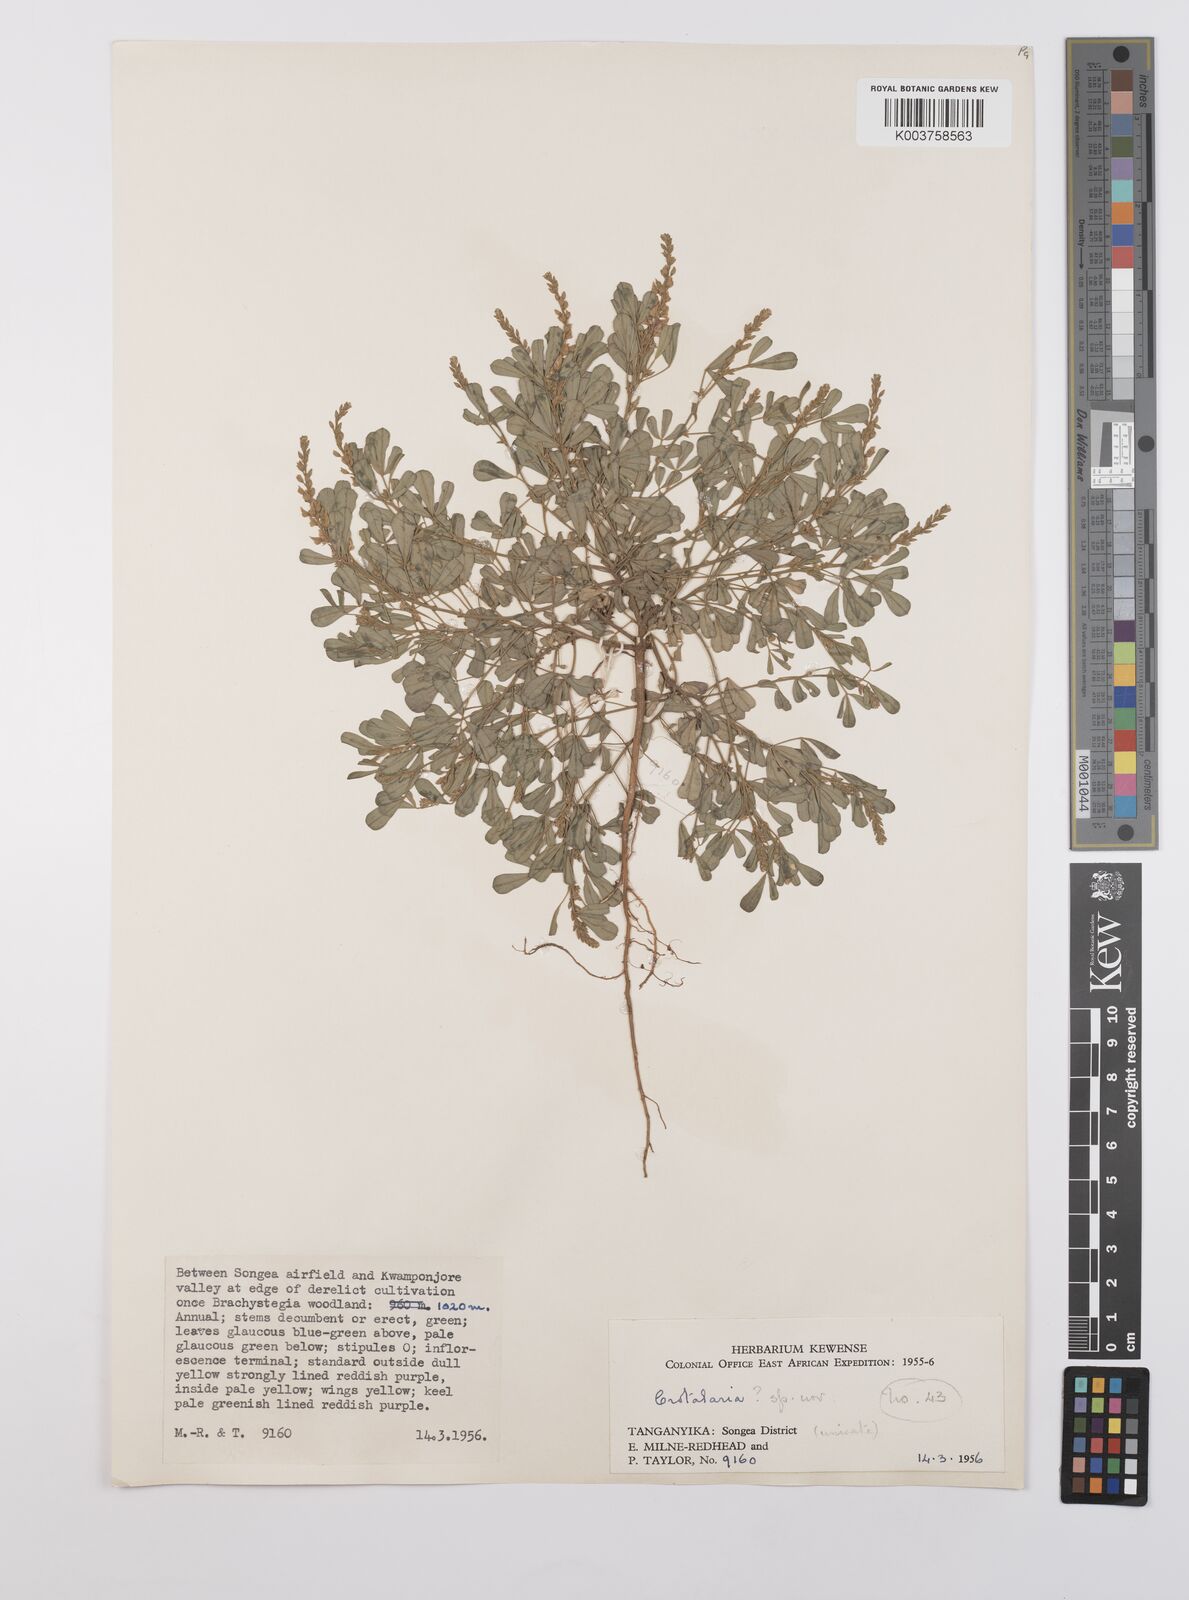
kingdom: Plantae
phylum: Tracheophyta
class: Magnoliopsida
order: Fabales
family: Fabaceae
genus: Crotalaria
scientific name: Crotalaria hyssopifolia
